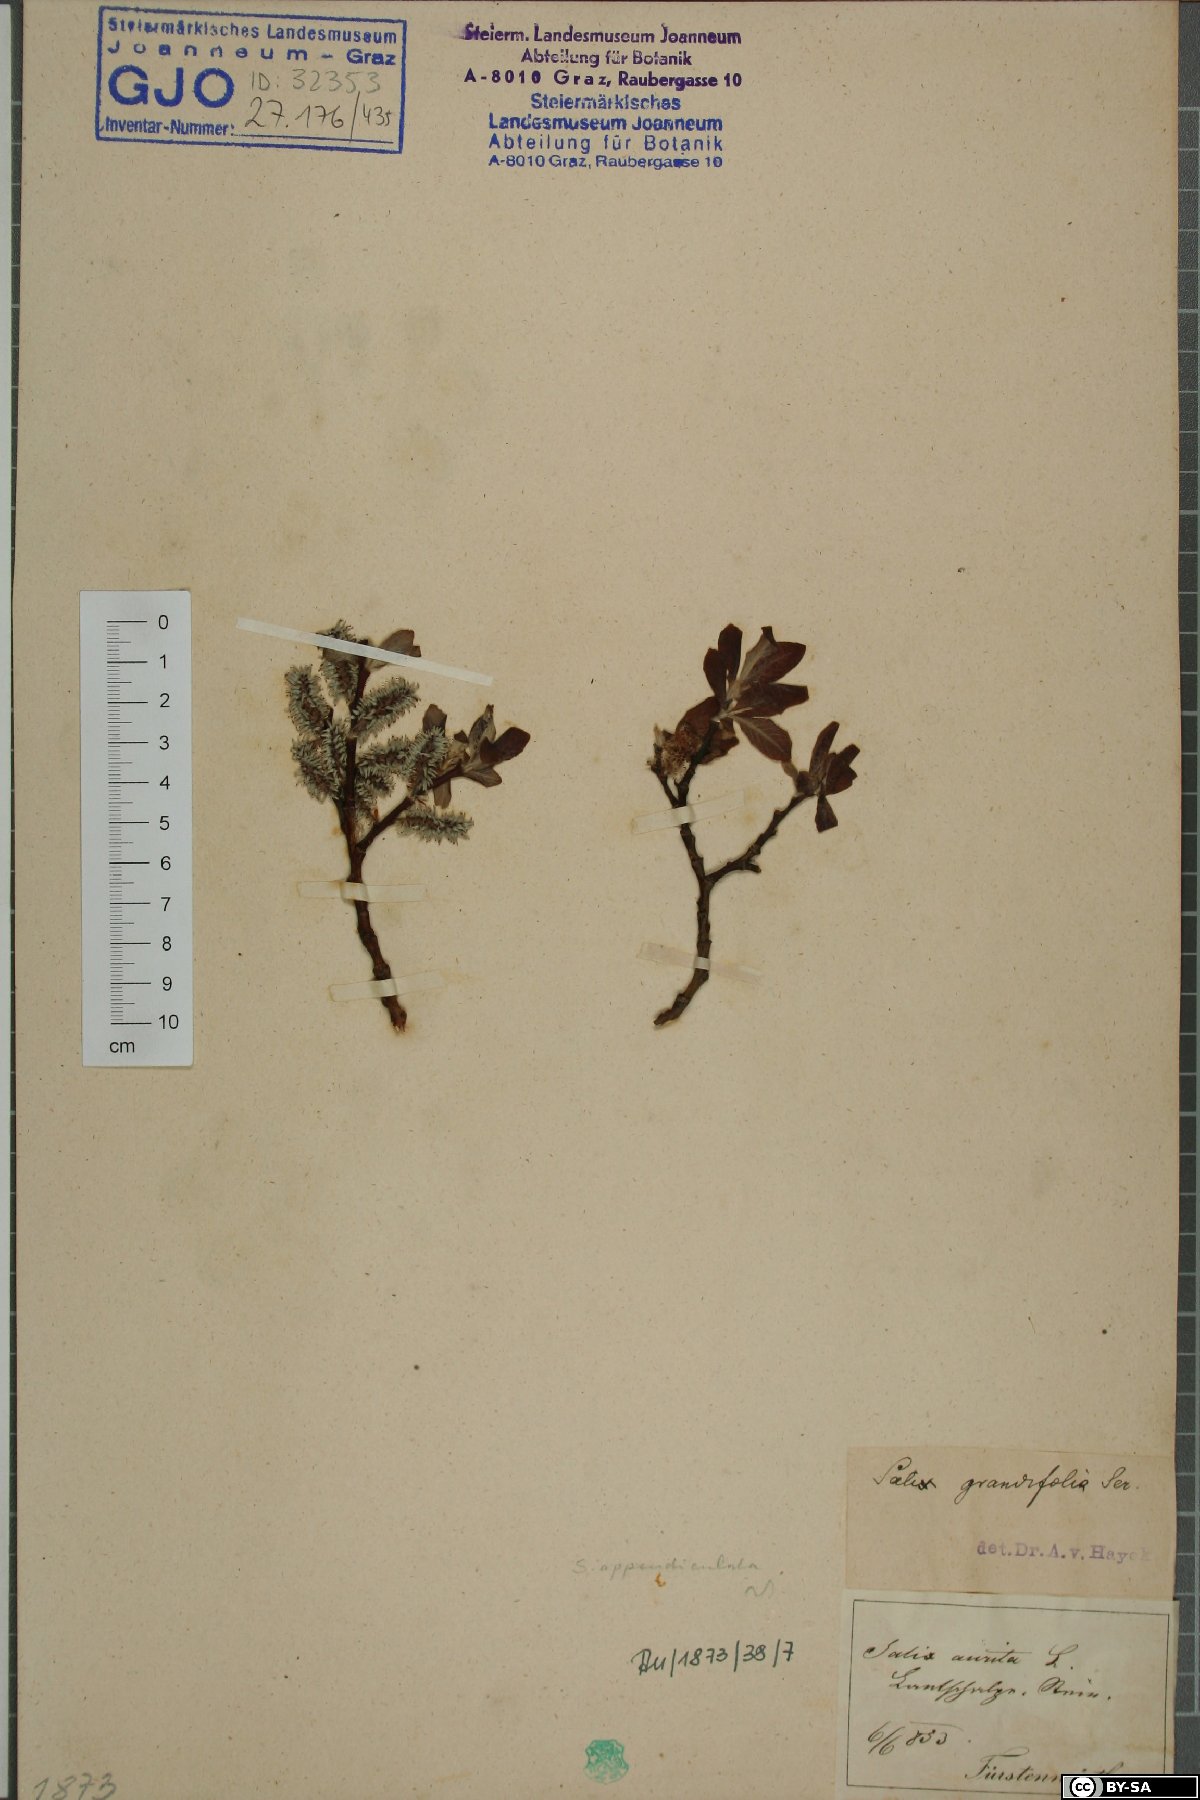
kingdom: Plantae
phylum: Tracheophyta
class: Magnoliopsida
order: Malpighiales
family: Salicaceae
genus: Salix
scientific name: Salix appendiculata
